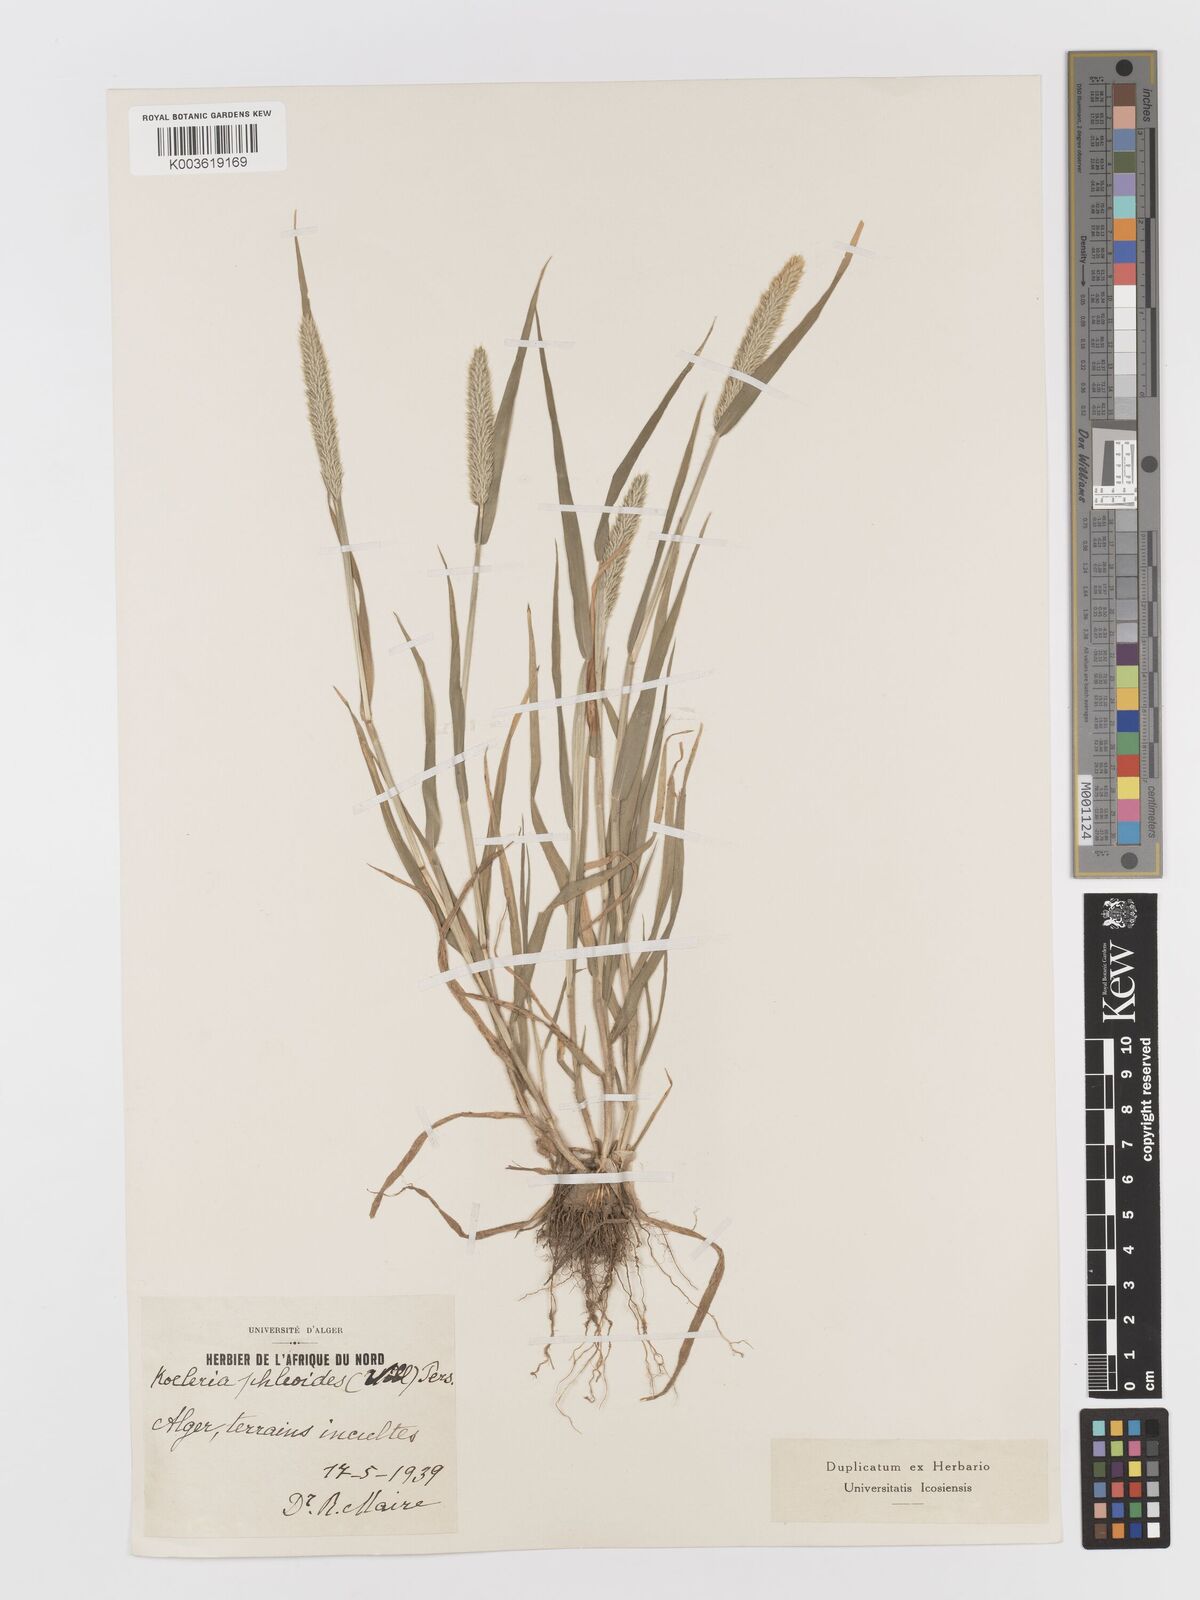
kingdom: Plantae
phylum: Tracheophyta
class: Liliopsida
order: Poales
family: Poaceae
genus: Rostraria
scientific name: Rostraria cristata
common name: Mediterranean hair-grass
